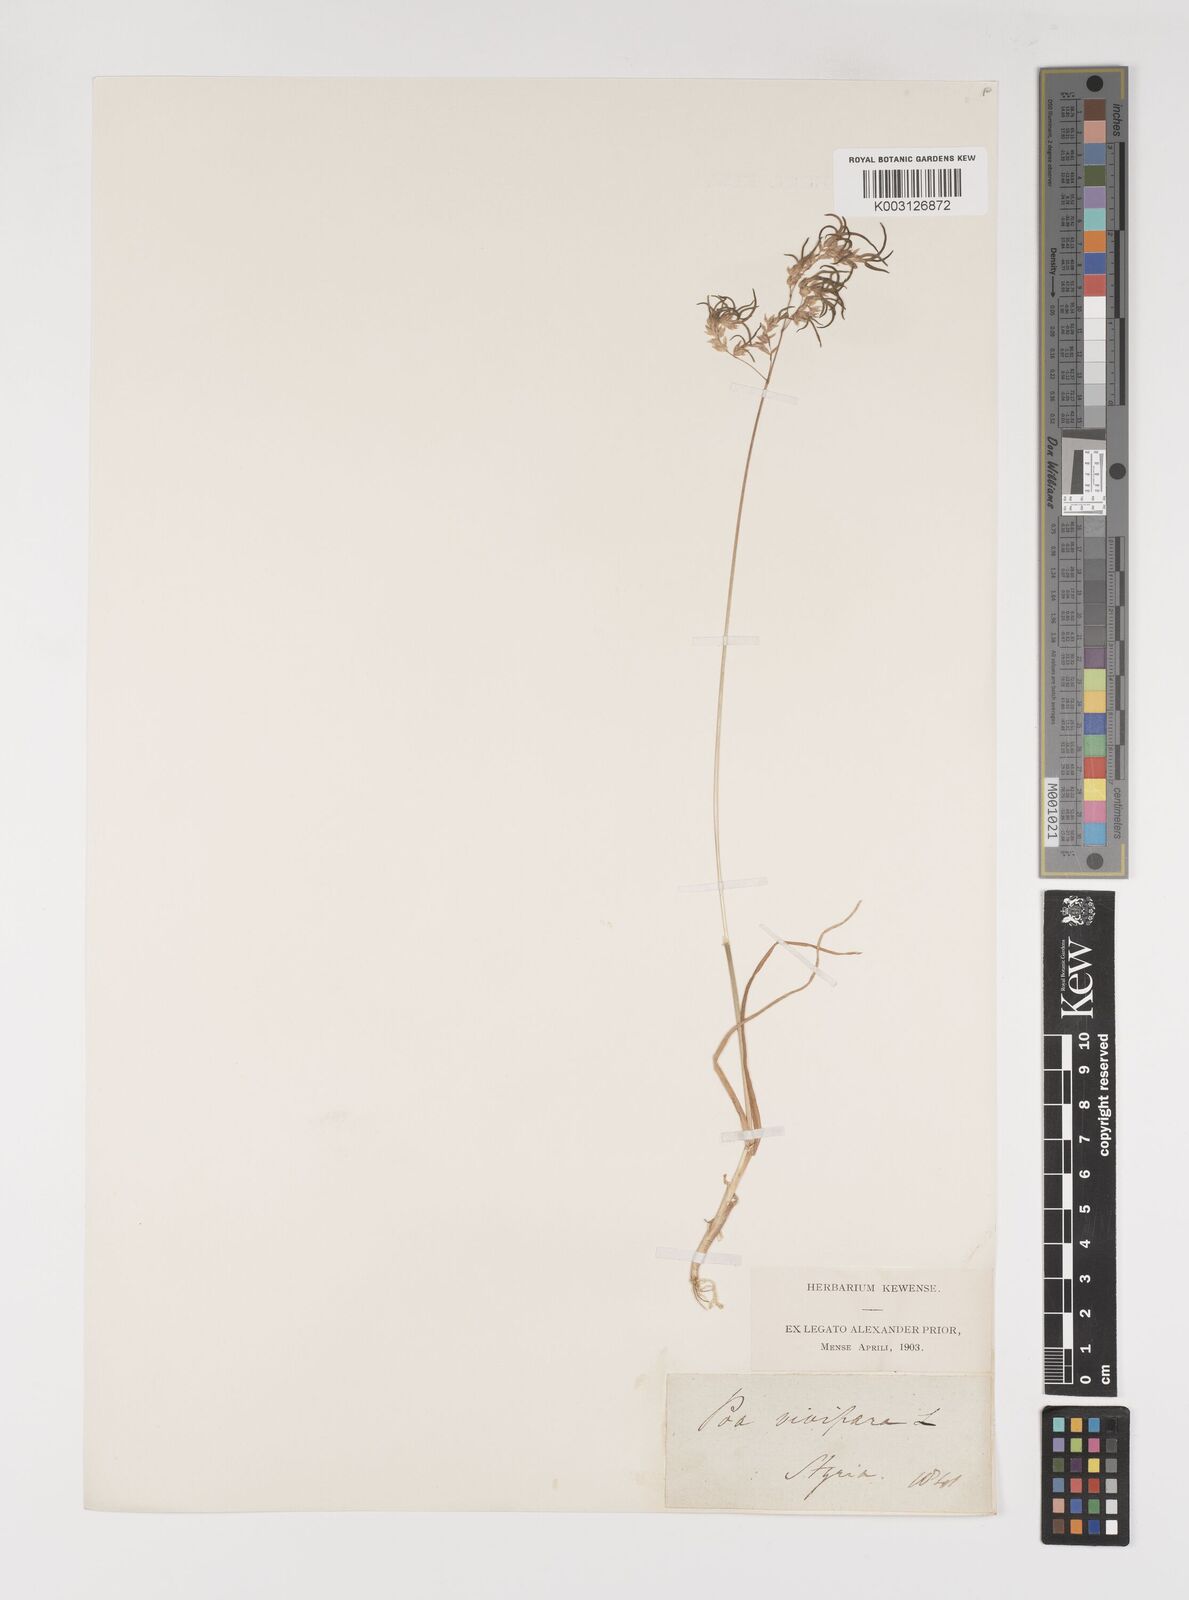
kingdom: Plantae
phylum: Tracheophyta
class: Liliopsida
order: Poales
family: Poaceae
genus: Poa
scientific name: Poa bulbosa
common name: Bulbous bluegrass
